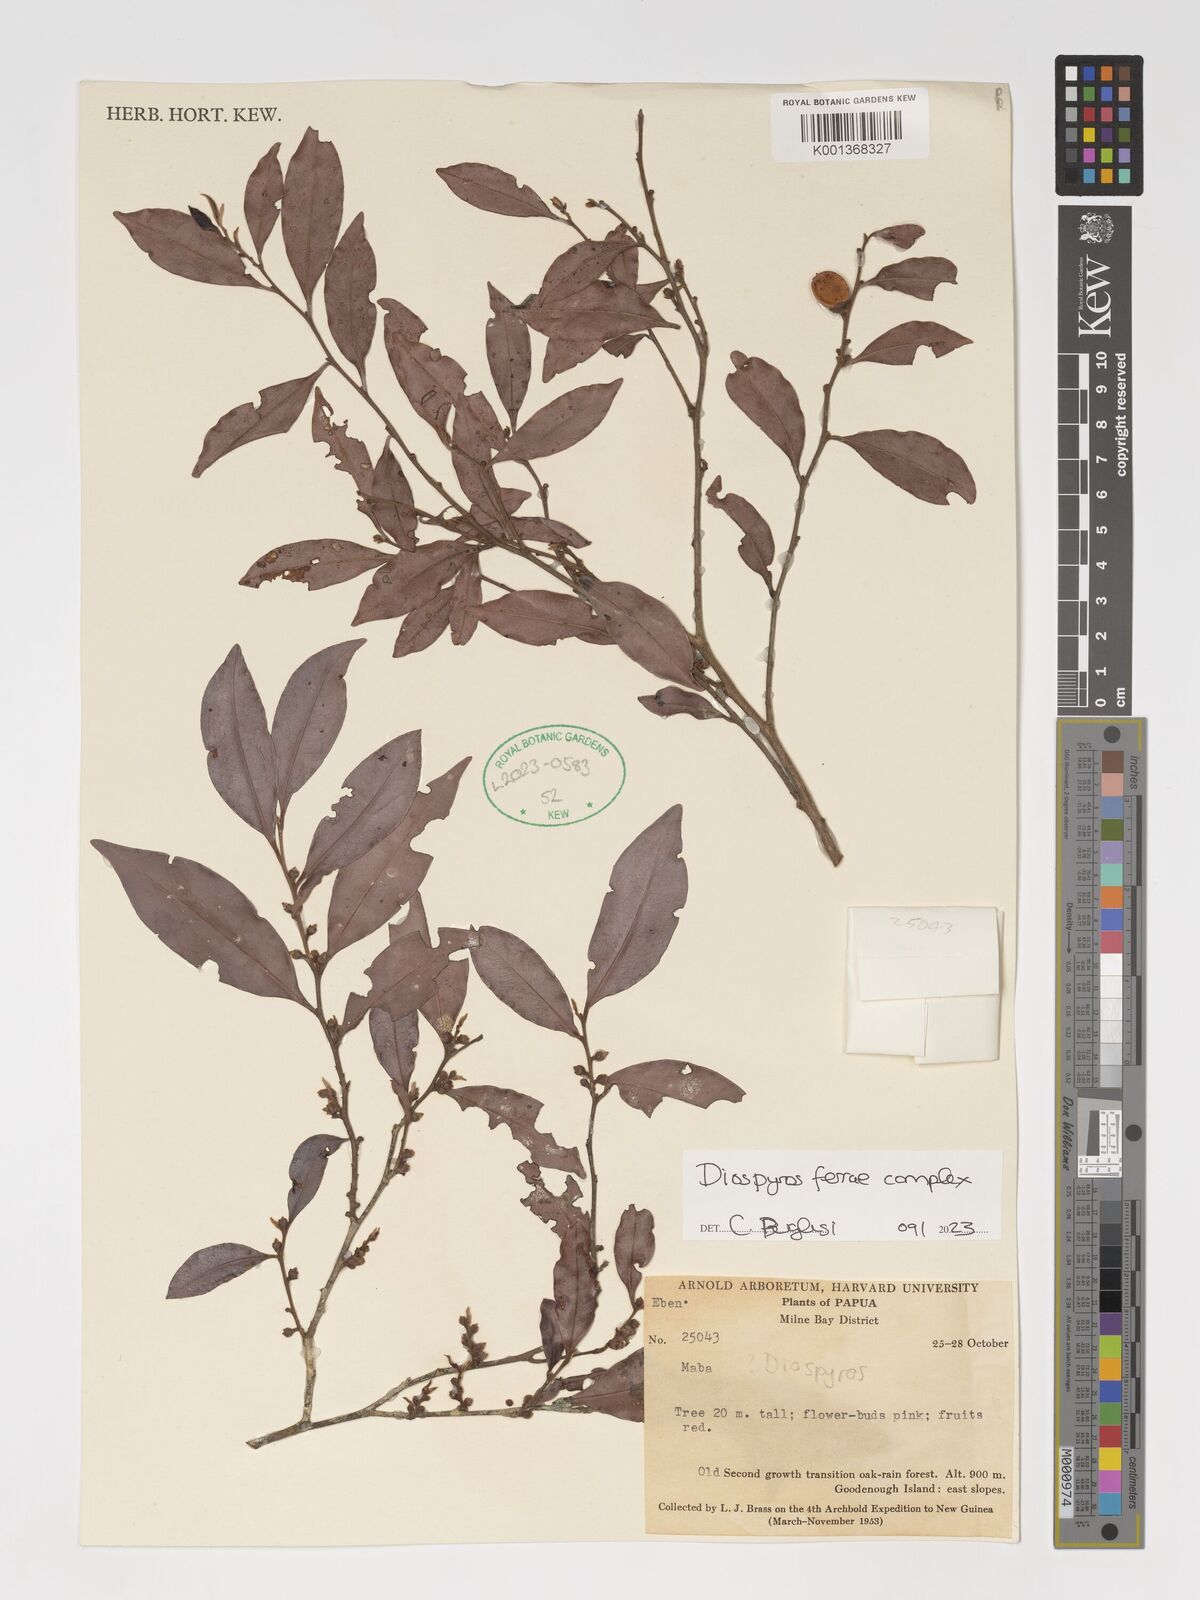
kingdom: Plantae
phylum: Tracheophyta
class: Magnoliopsida
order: Ericales
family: Ebenaceae
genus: Diospyros
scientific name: Diospyros ferrea
